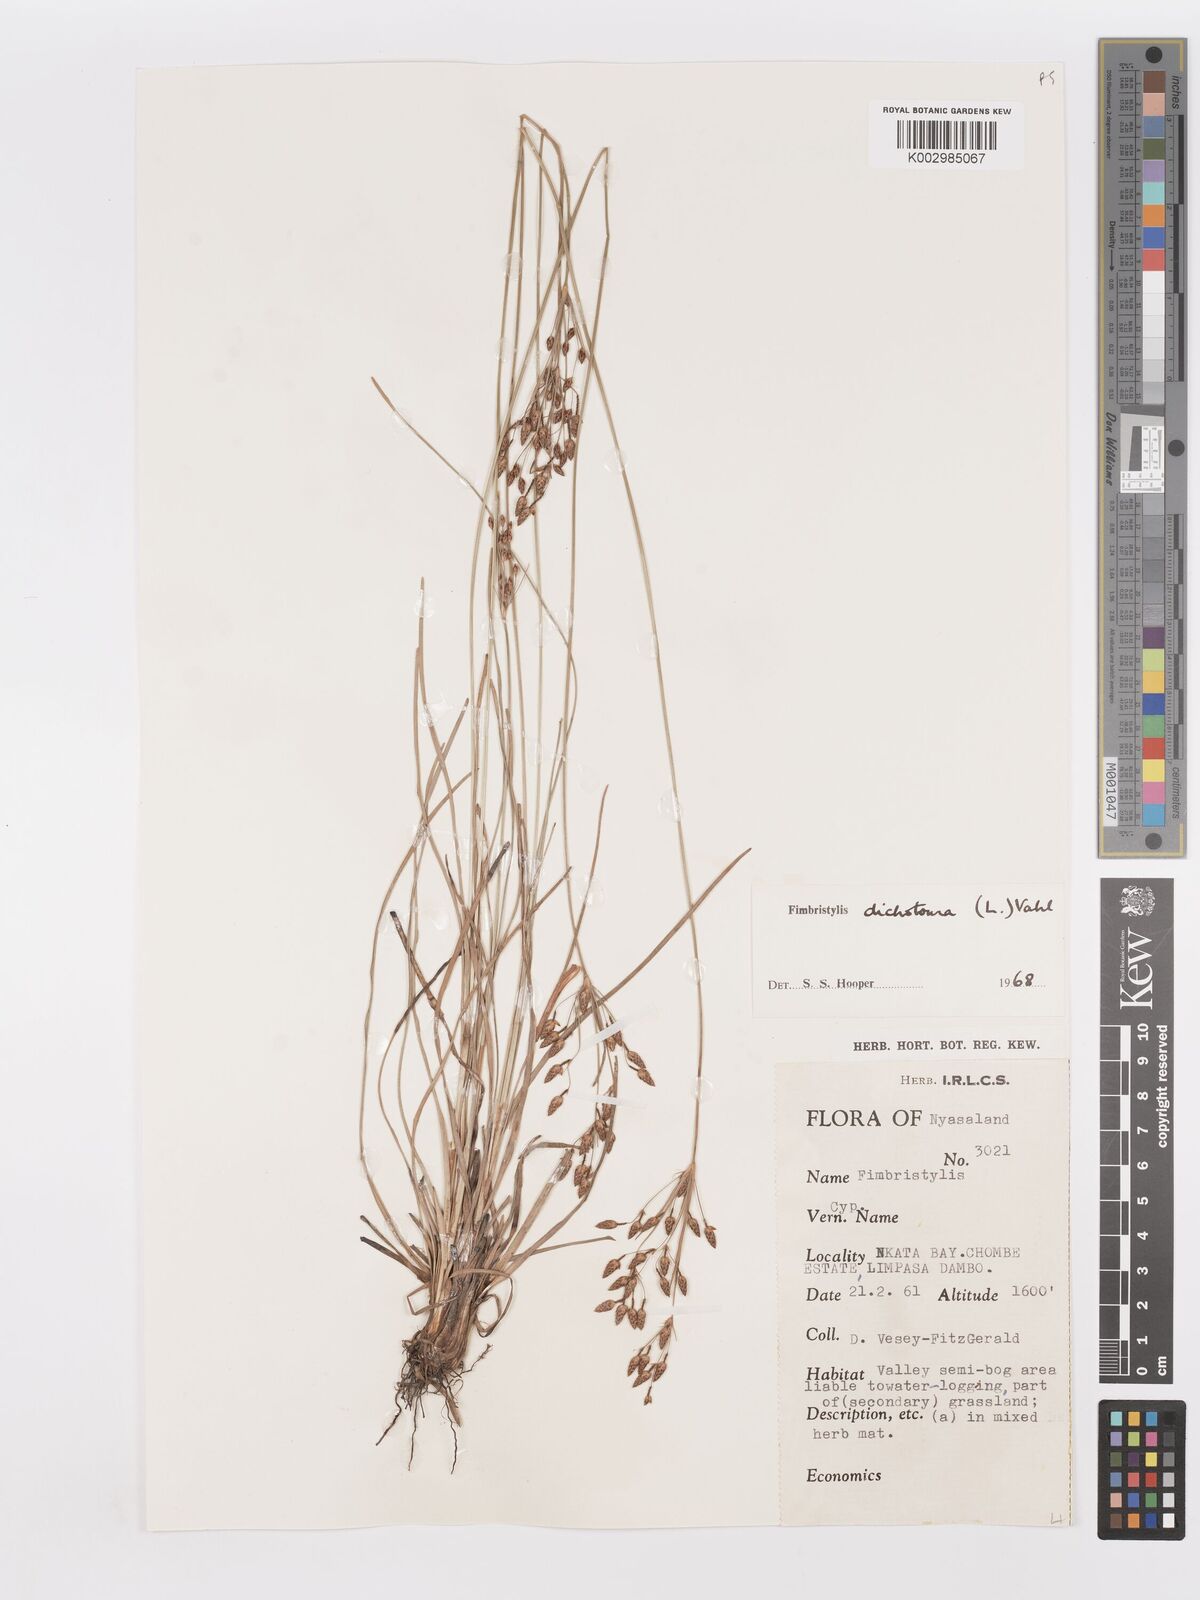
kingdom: Plantae
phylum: Tracheophyta
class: Liliopsida
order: Poales
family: Cyperaceae
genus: Fimbristylis
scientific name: Fimbristylis dichotoma
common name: Forked fimbry
